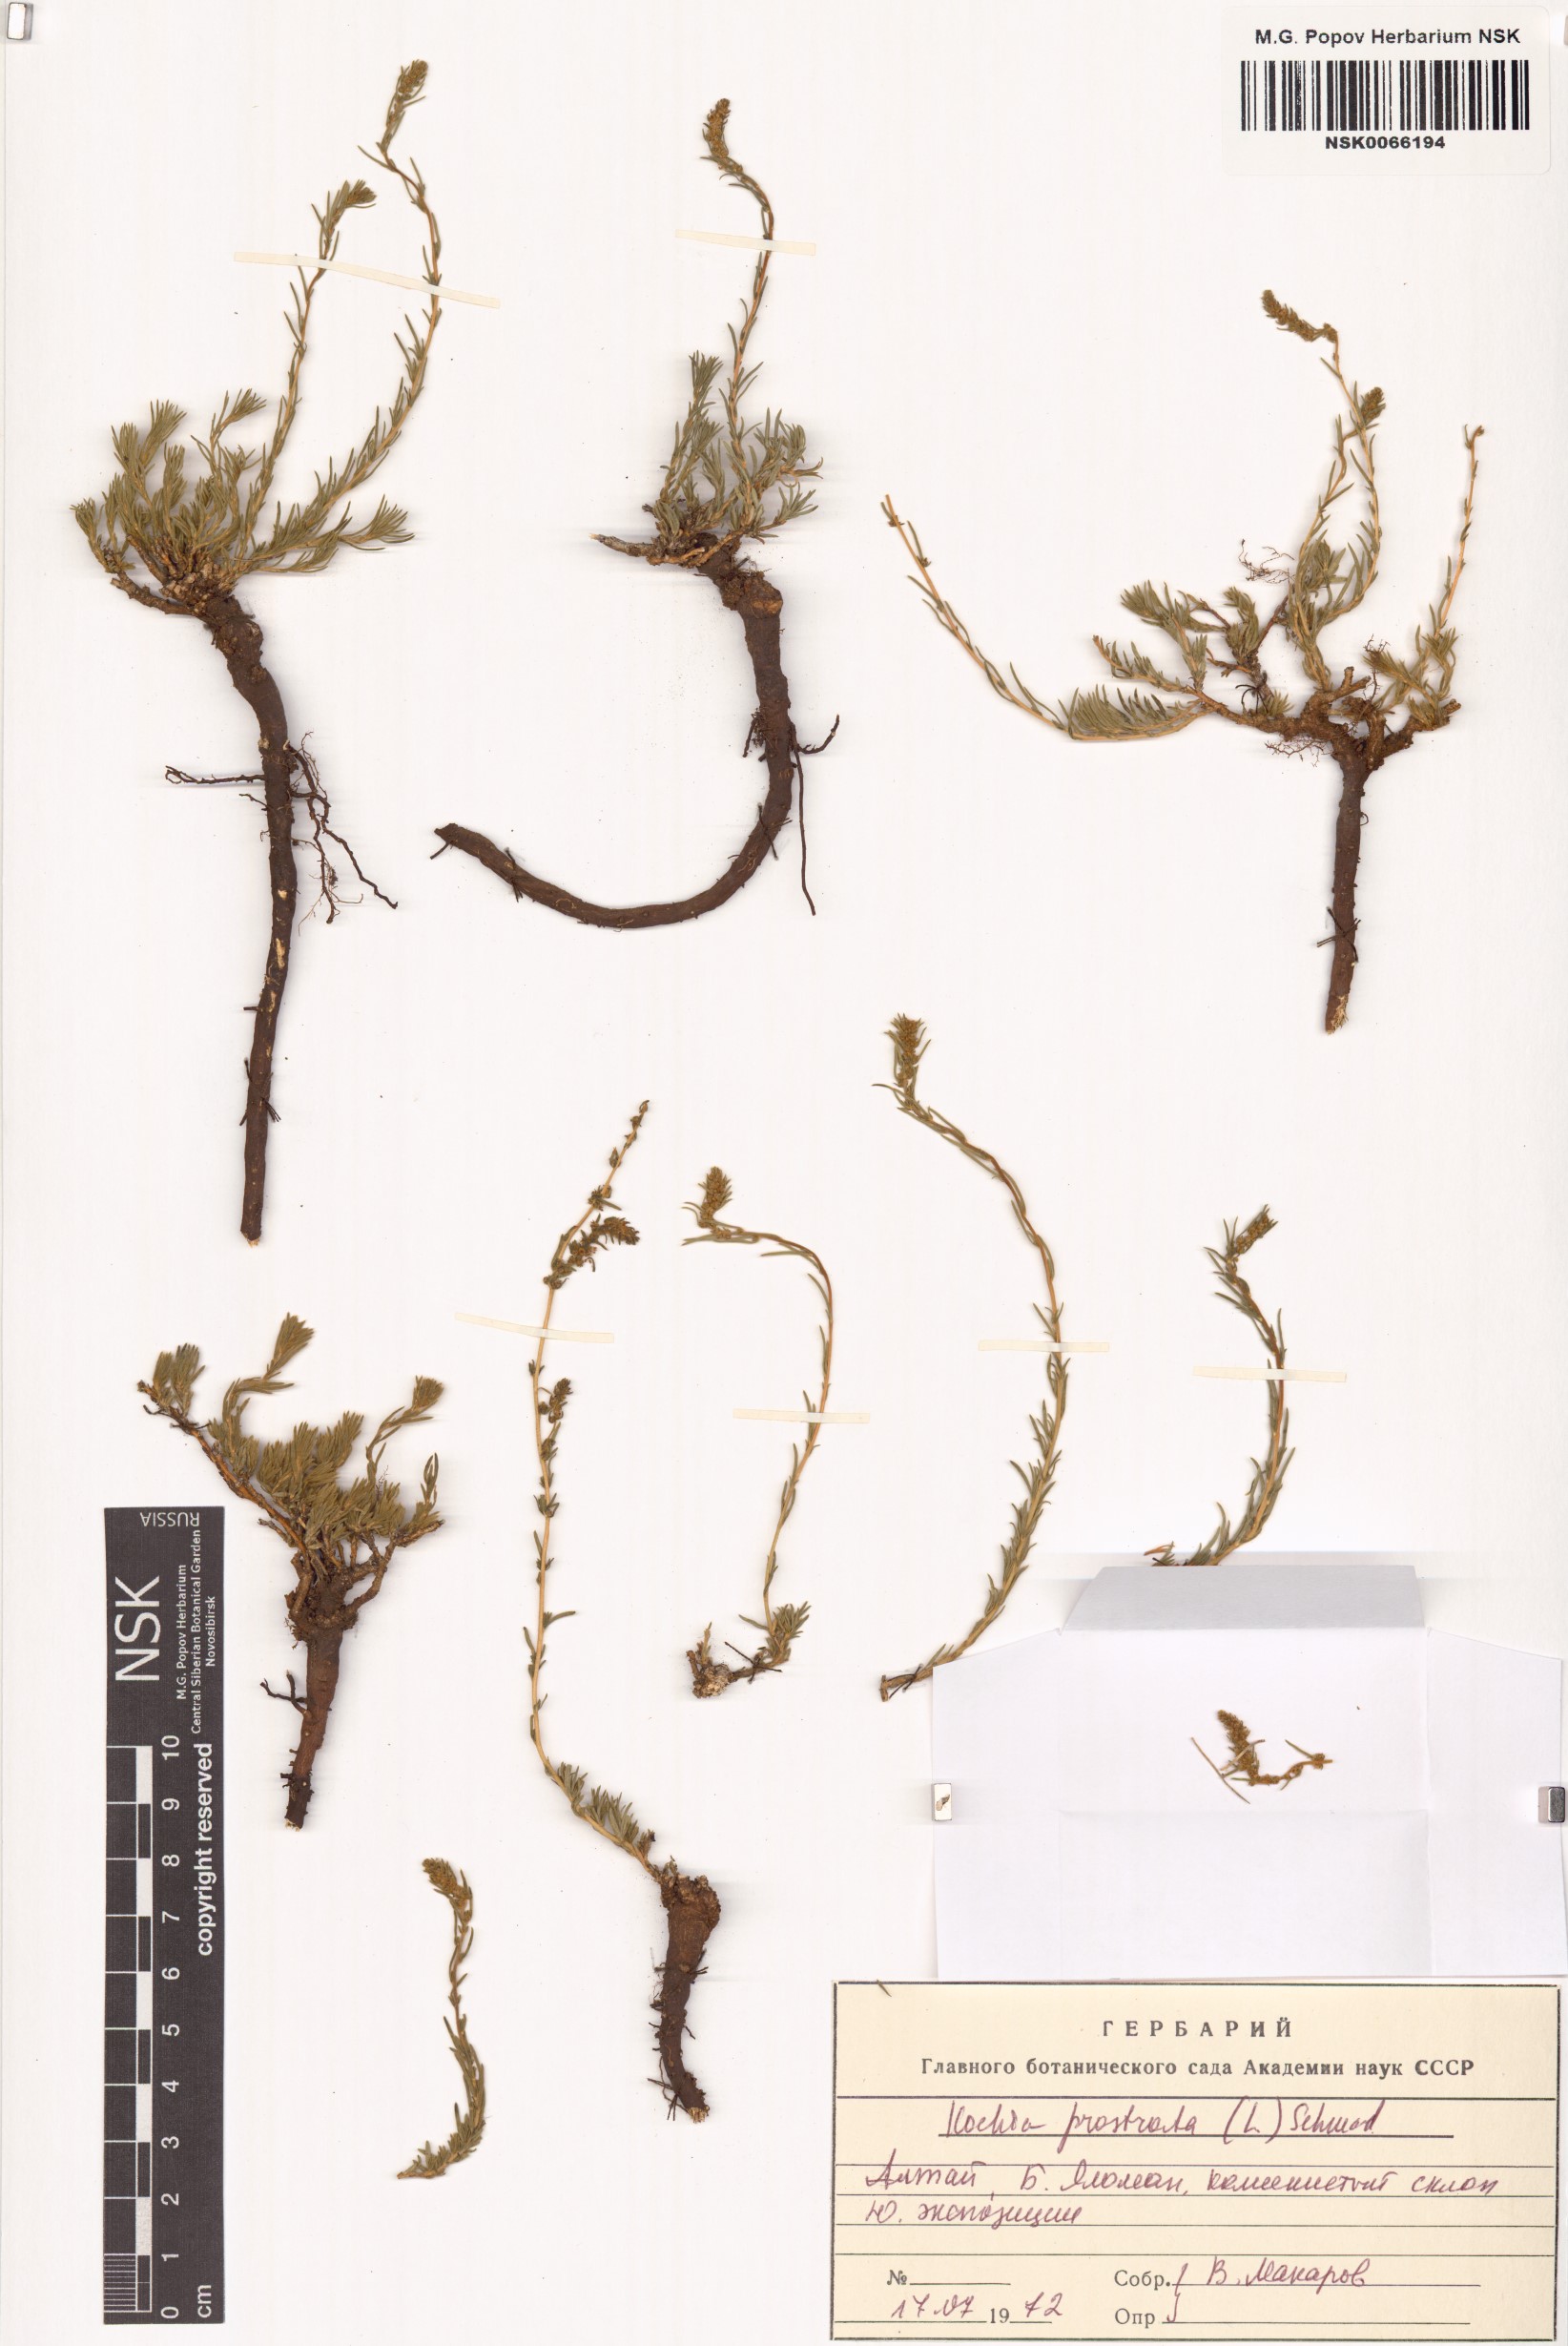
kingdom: Plantae
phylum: Tracheophyta
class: Magnoliopsida
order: Caryophyllales
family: Amaranthaceae
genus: Bassia
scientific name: Bassia prostrata
